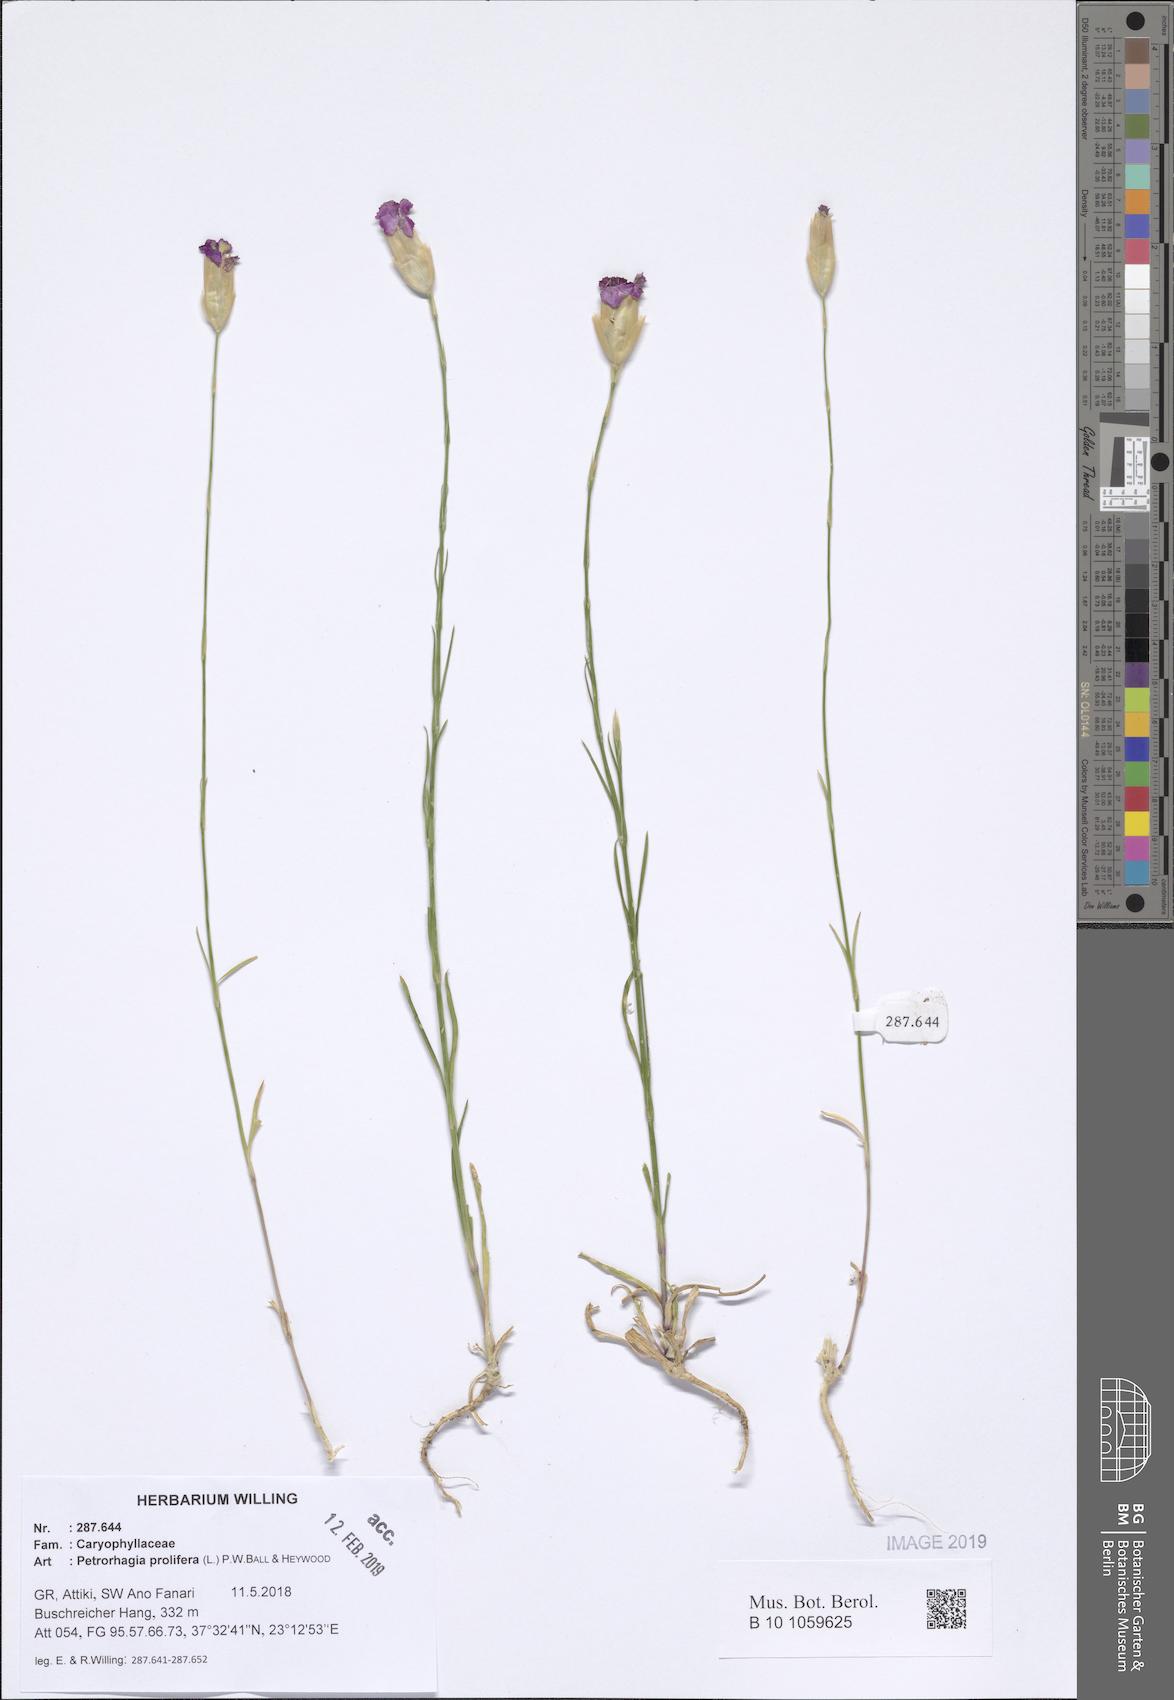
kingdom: Plantae
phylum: Tracheophyta
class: Magnoliopsida
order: Caryophyllales
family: Caryophyllaceae
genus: Petrorhagia
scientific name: Petrorhagia prolifera
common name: Proliferous pink
